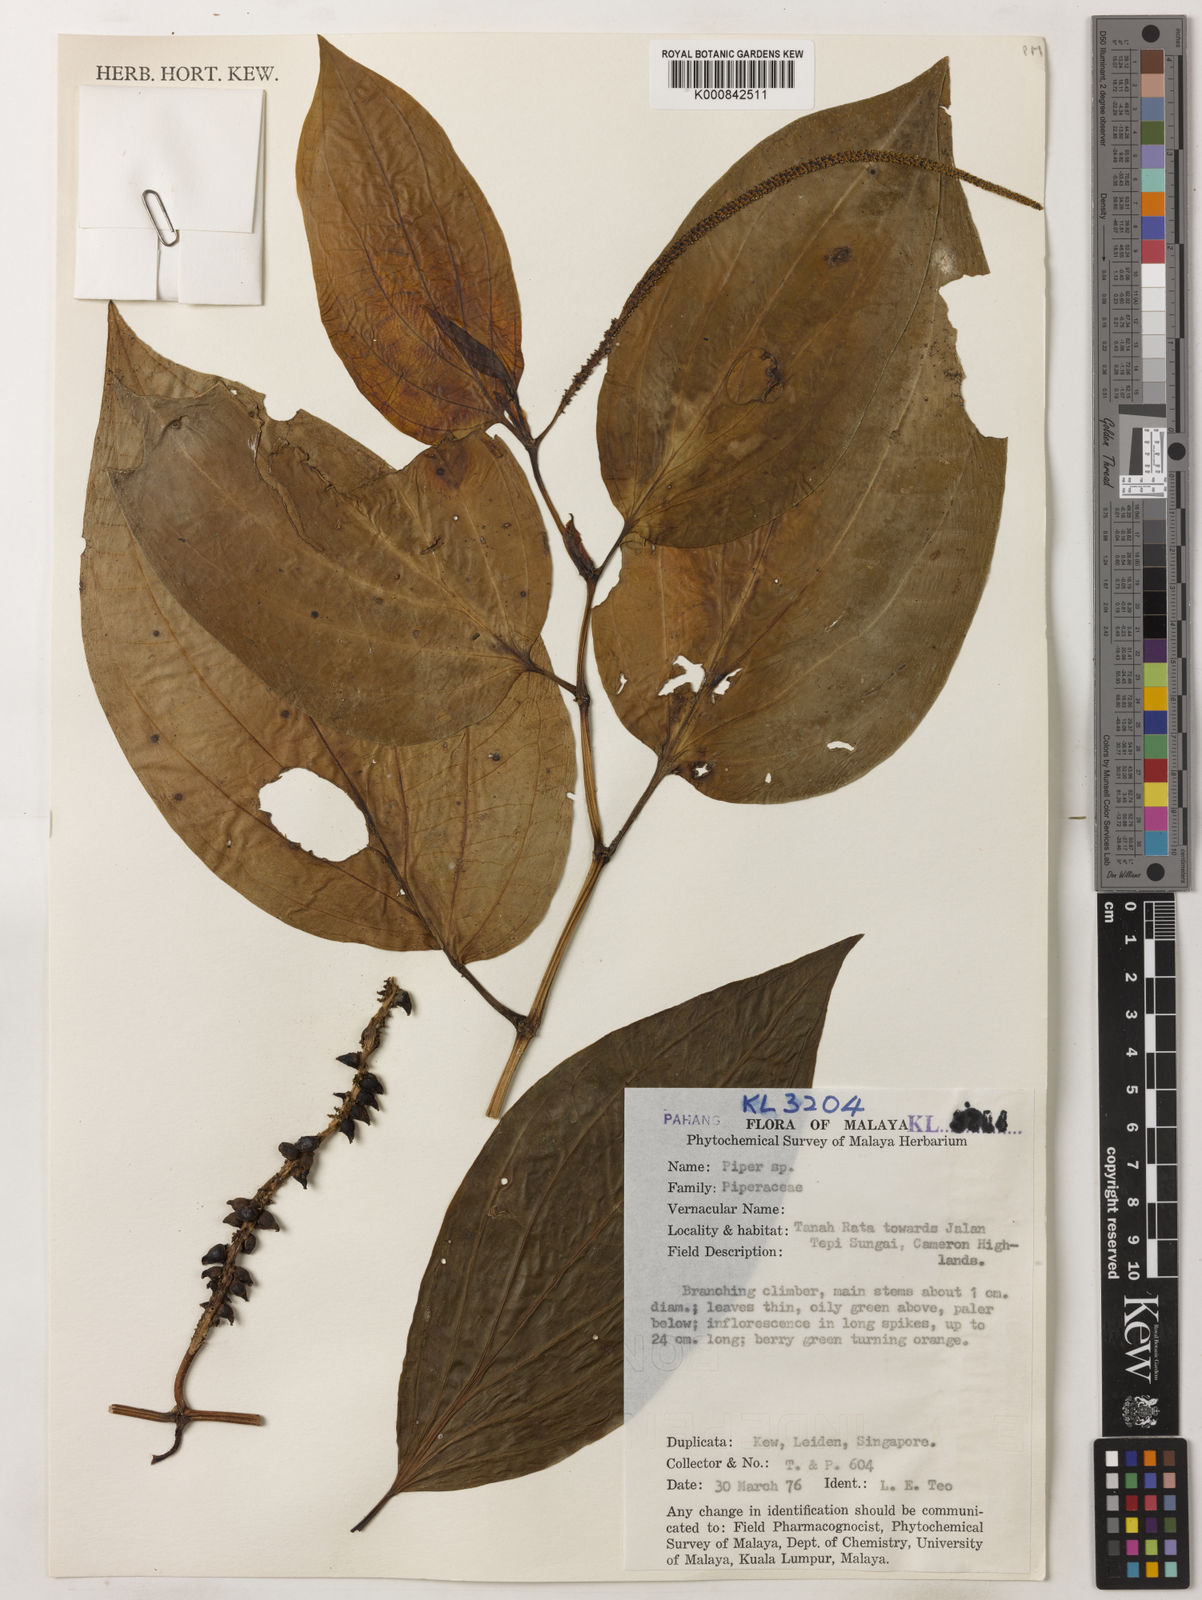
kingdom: Plantae
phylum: Tracheophyta
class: Magnoliopsida
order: Piperales
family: Piperaceae
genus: Piper
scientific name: Piper
